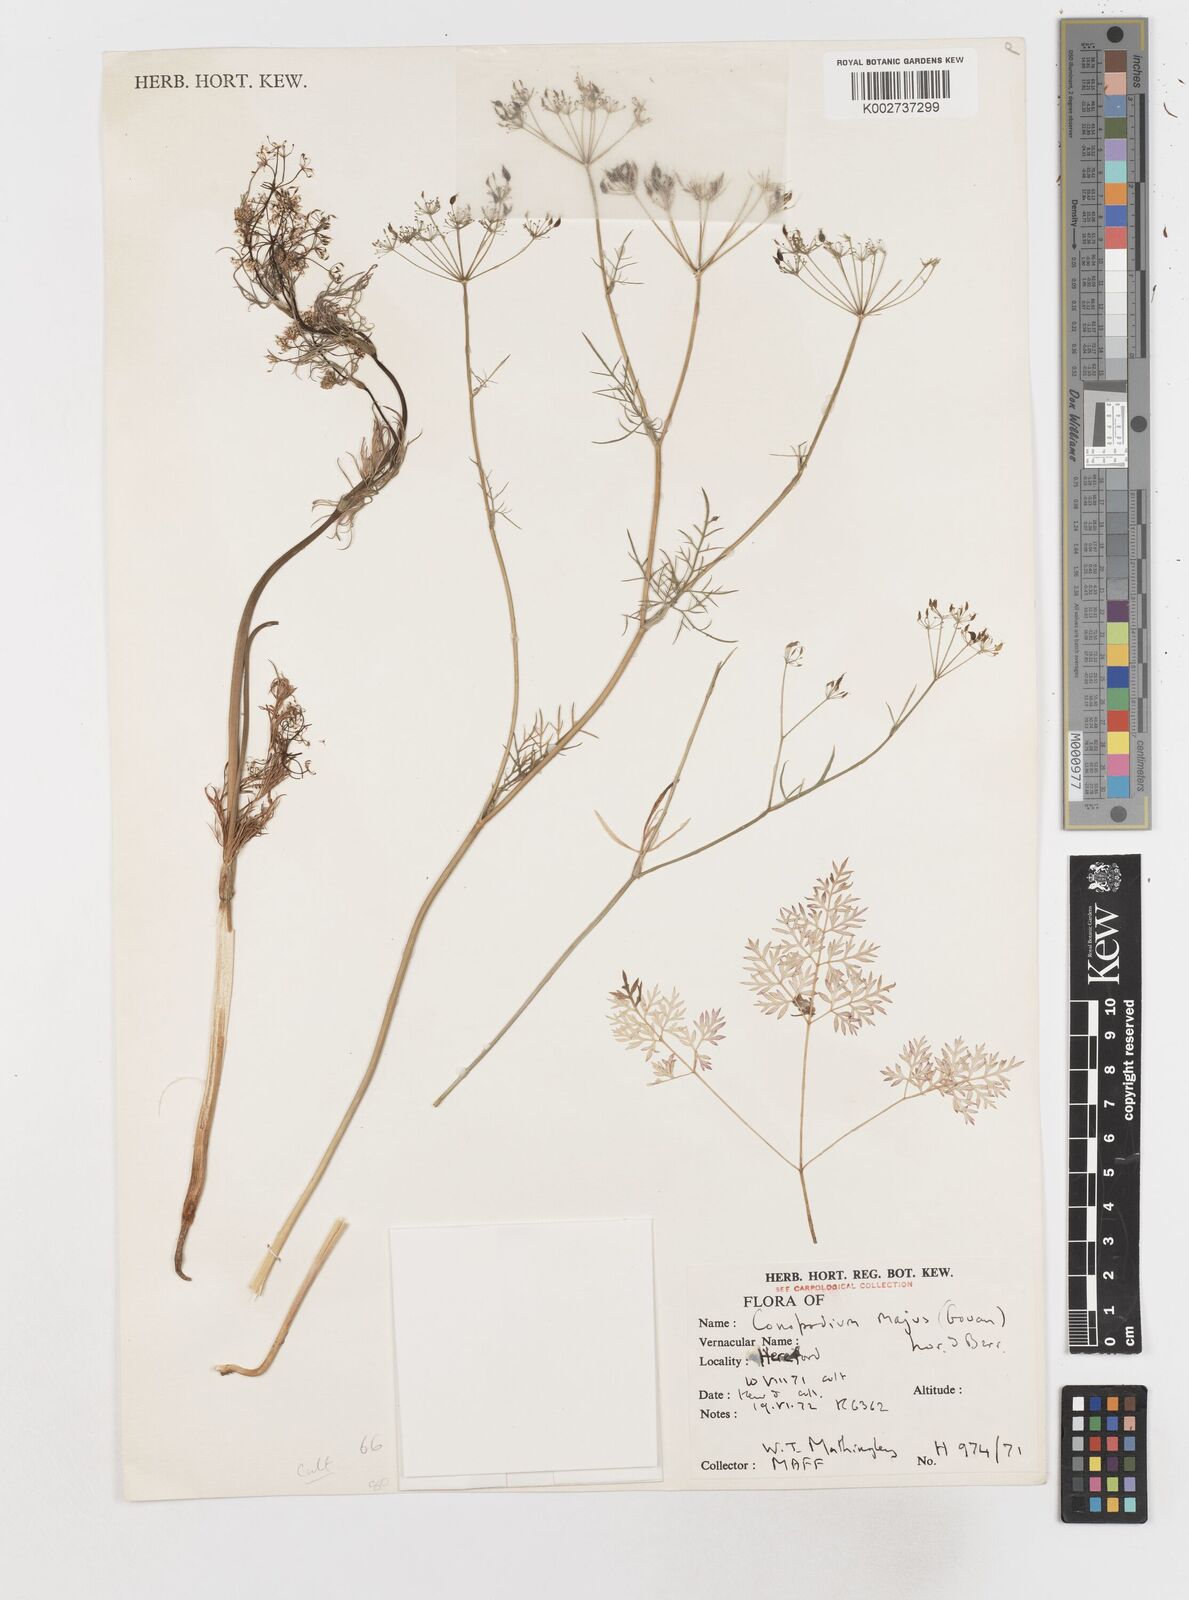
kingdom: Plantae
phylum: Tracheophyta
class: Magnoliopsida
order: Apiales
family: Apiaceae
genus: Conopodium
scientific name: Conopodium
